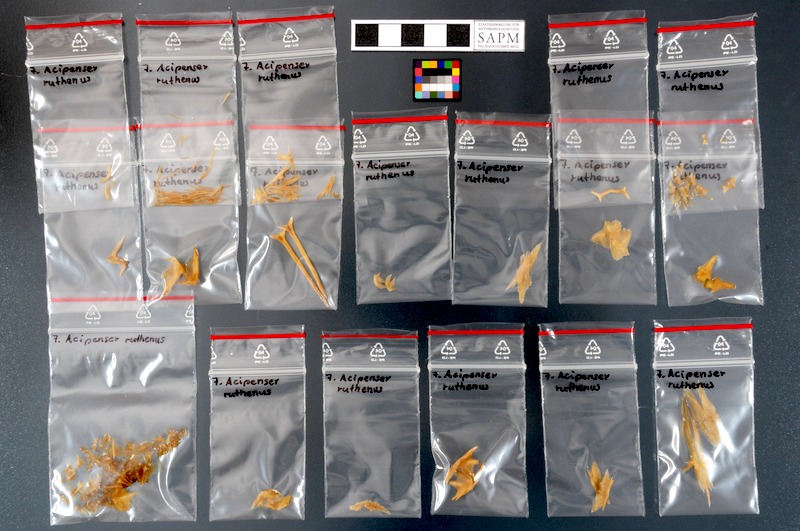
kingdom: Animalia
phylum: Chordata
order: Acipenseriformes
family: Acipenseridae
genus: Acipenser
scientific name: Acipenser ruthenus
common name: Sterlet
